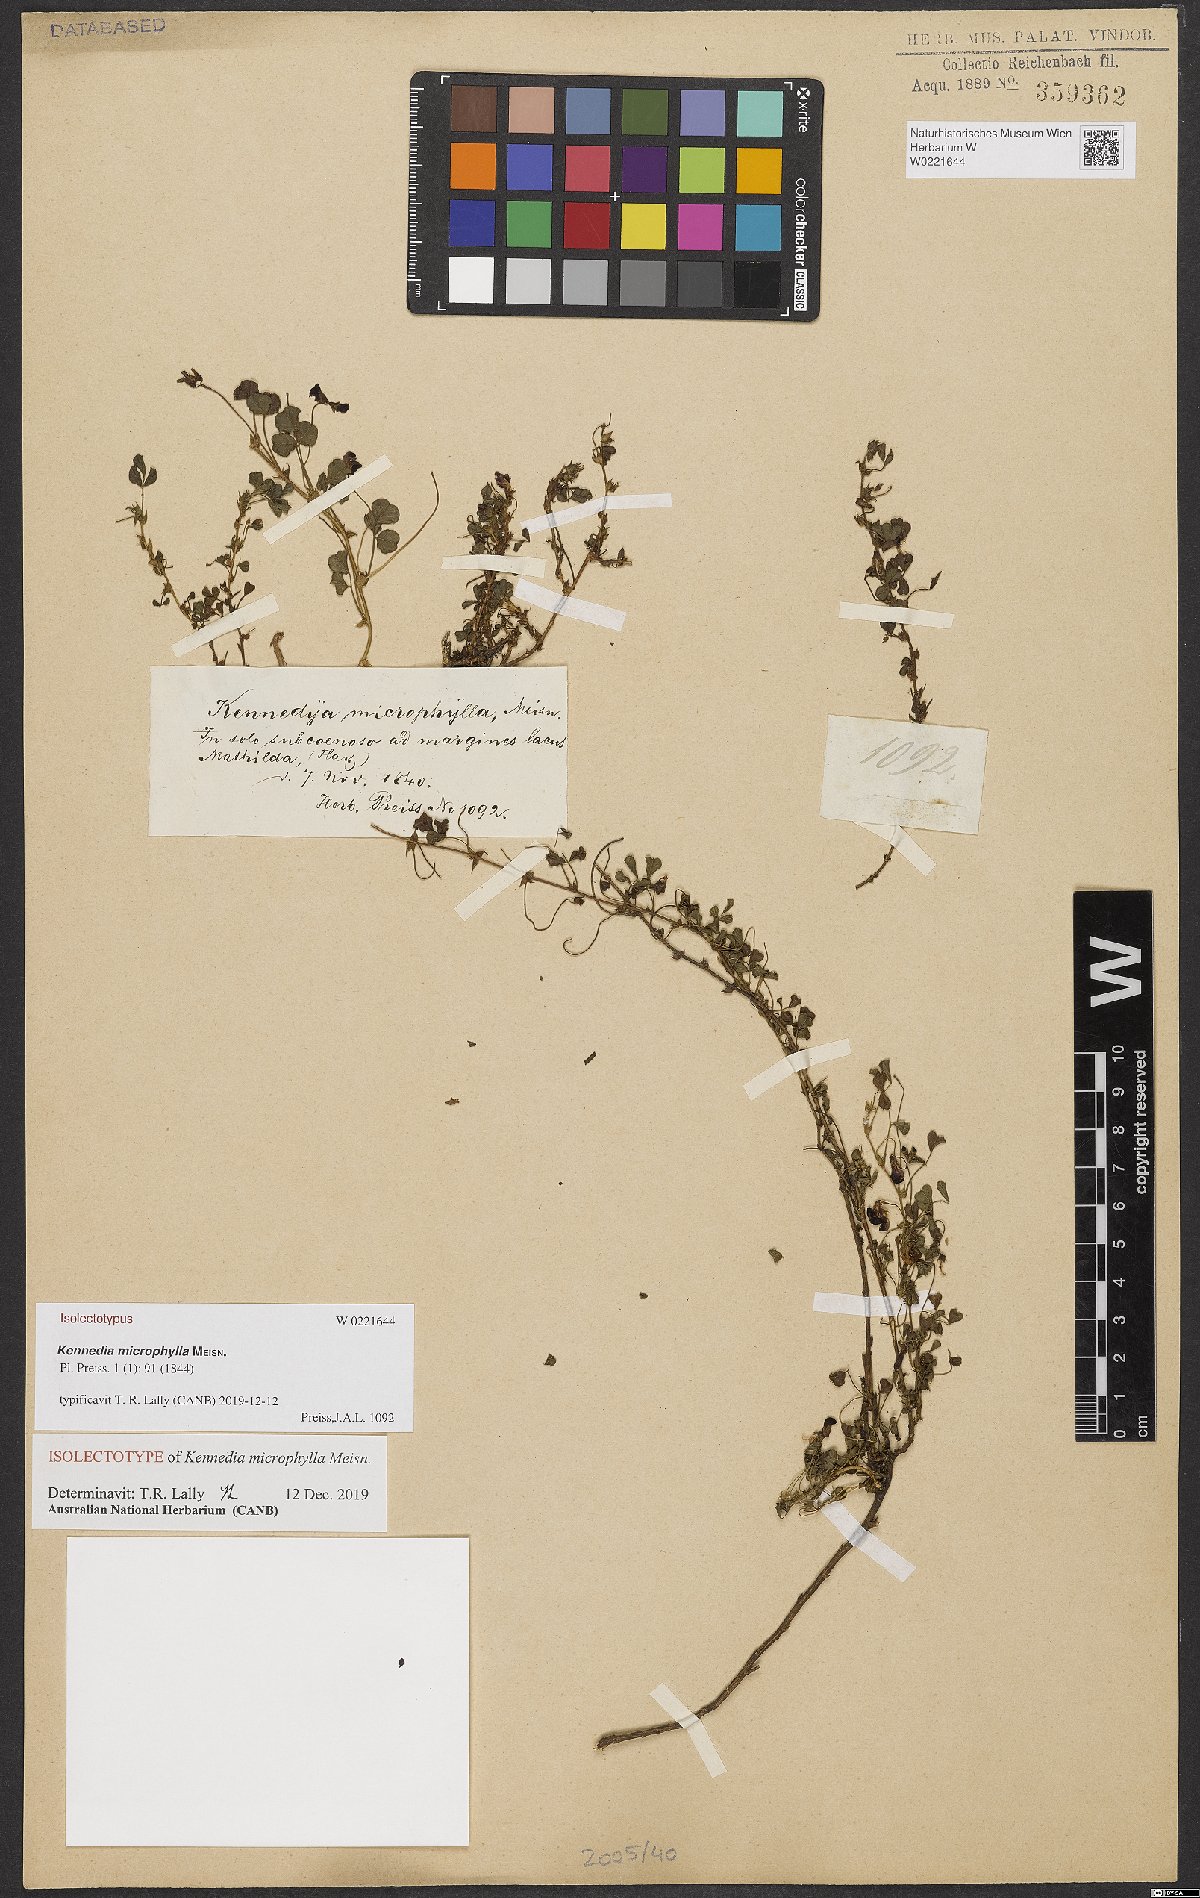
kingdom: Plantae
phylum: Tracheophyta
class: Magnoliopsida
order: Fabales
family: Fabaceae
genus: Kennedia
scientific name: Kennedia microphylla
